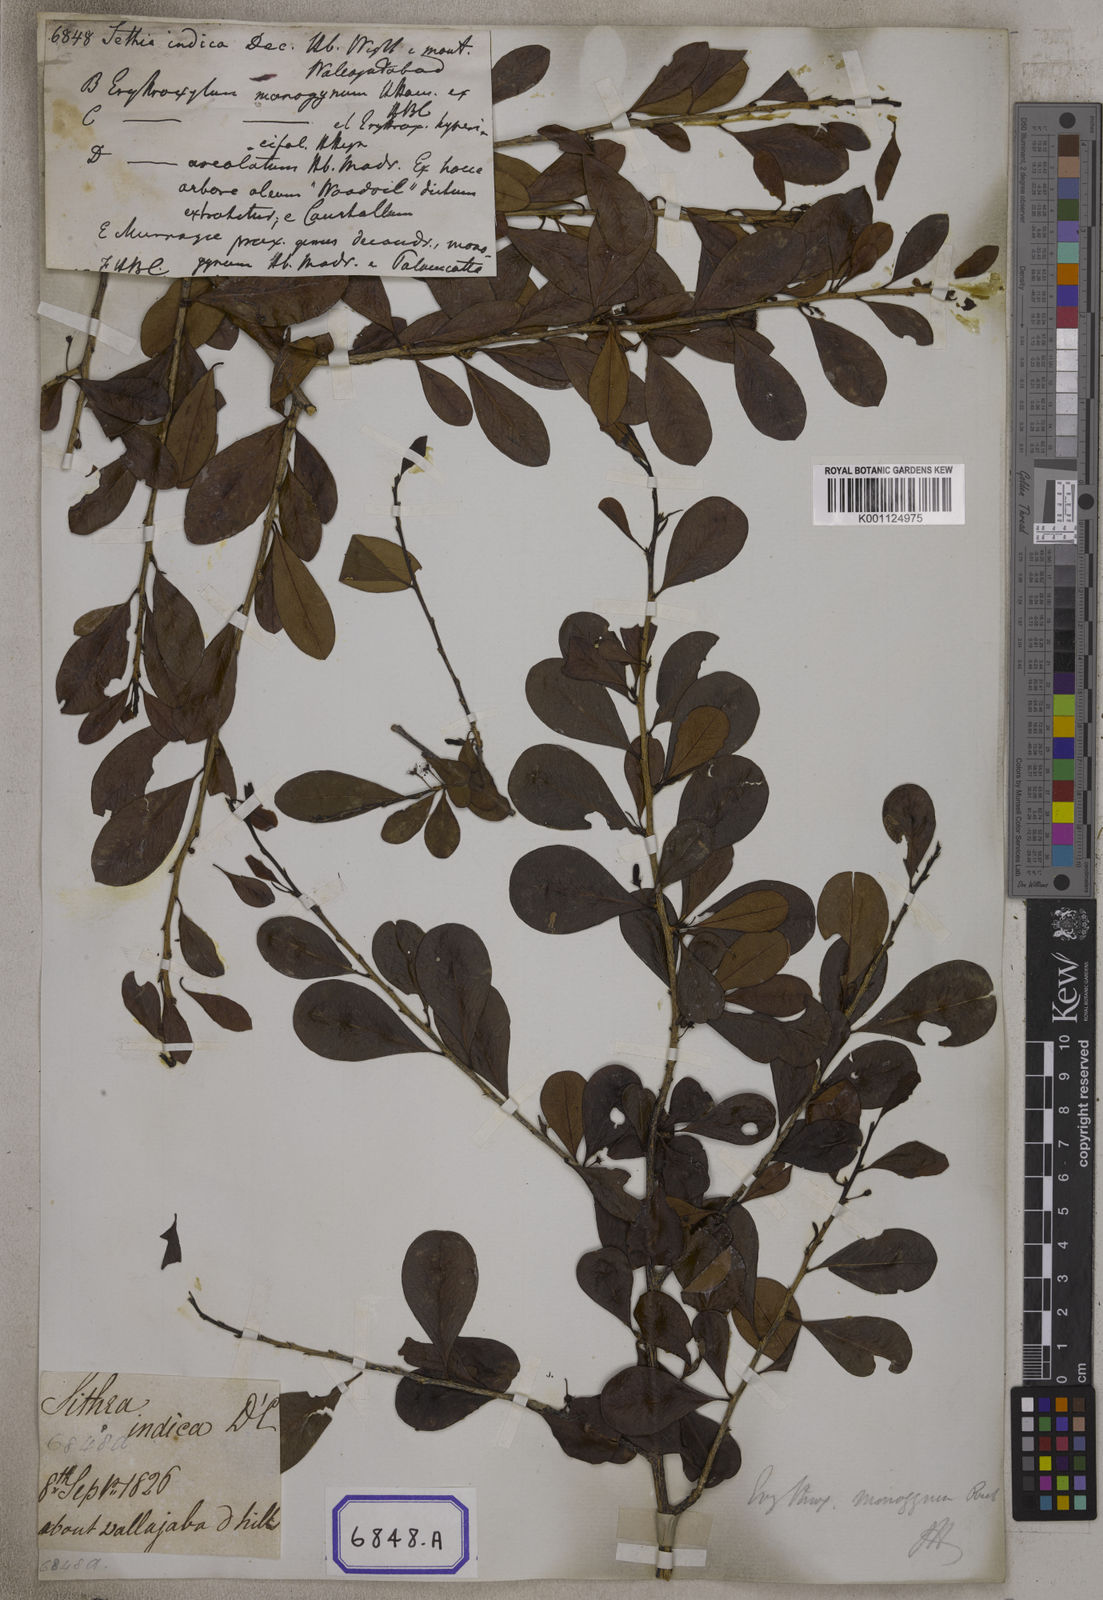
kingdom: Plantae
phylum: Tracheophyta
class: Magnoliopsida
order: Malpighiales
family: Erythroxylaceae
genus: Erythroxylum
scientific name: Erythroxylum monogynum
